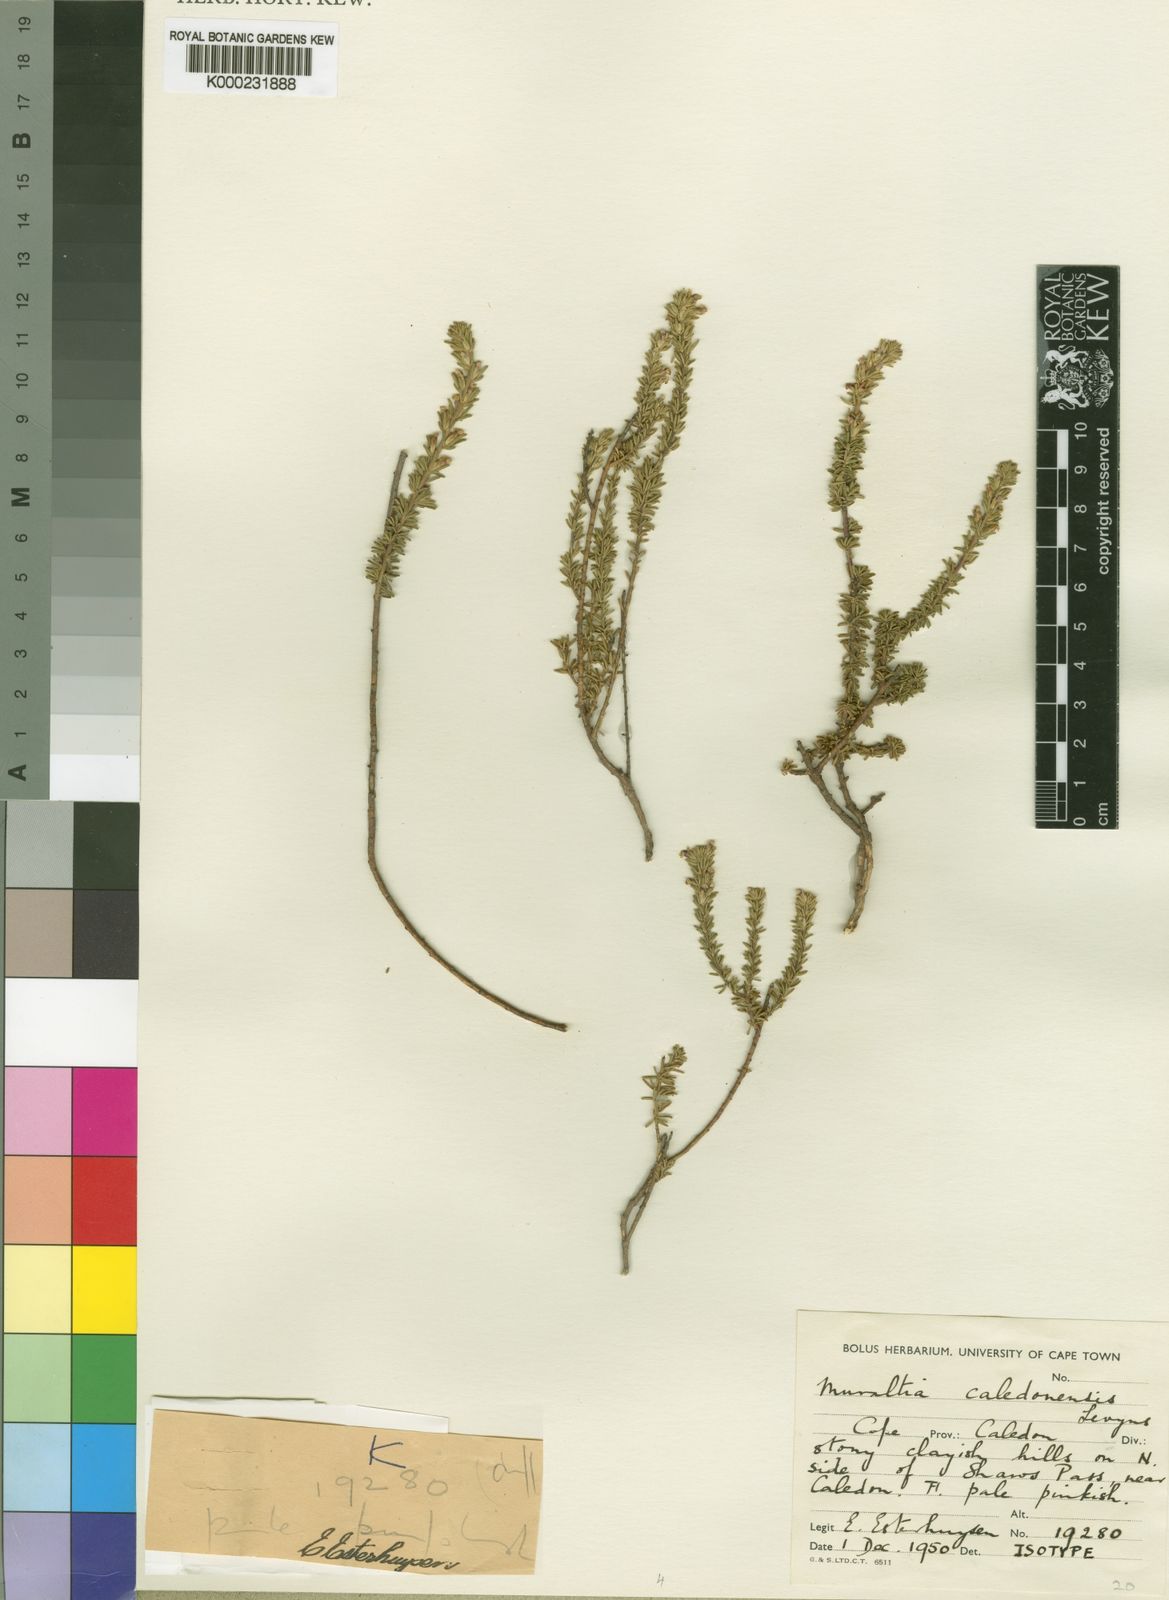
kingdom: Plantae
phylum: Tracheophyta
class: Magnoliopsida
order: Fabales
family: Polygalaceae
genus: Muraltia
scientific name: Muraltia caledonensis
